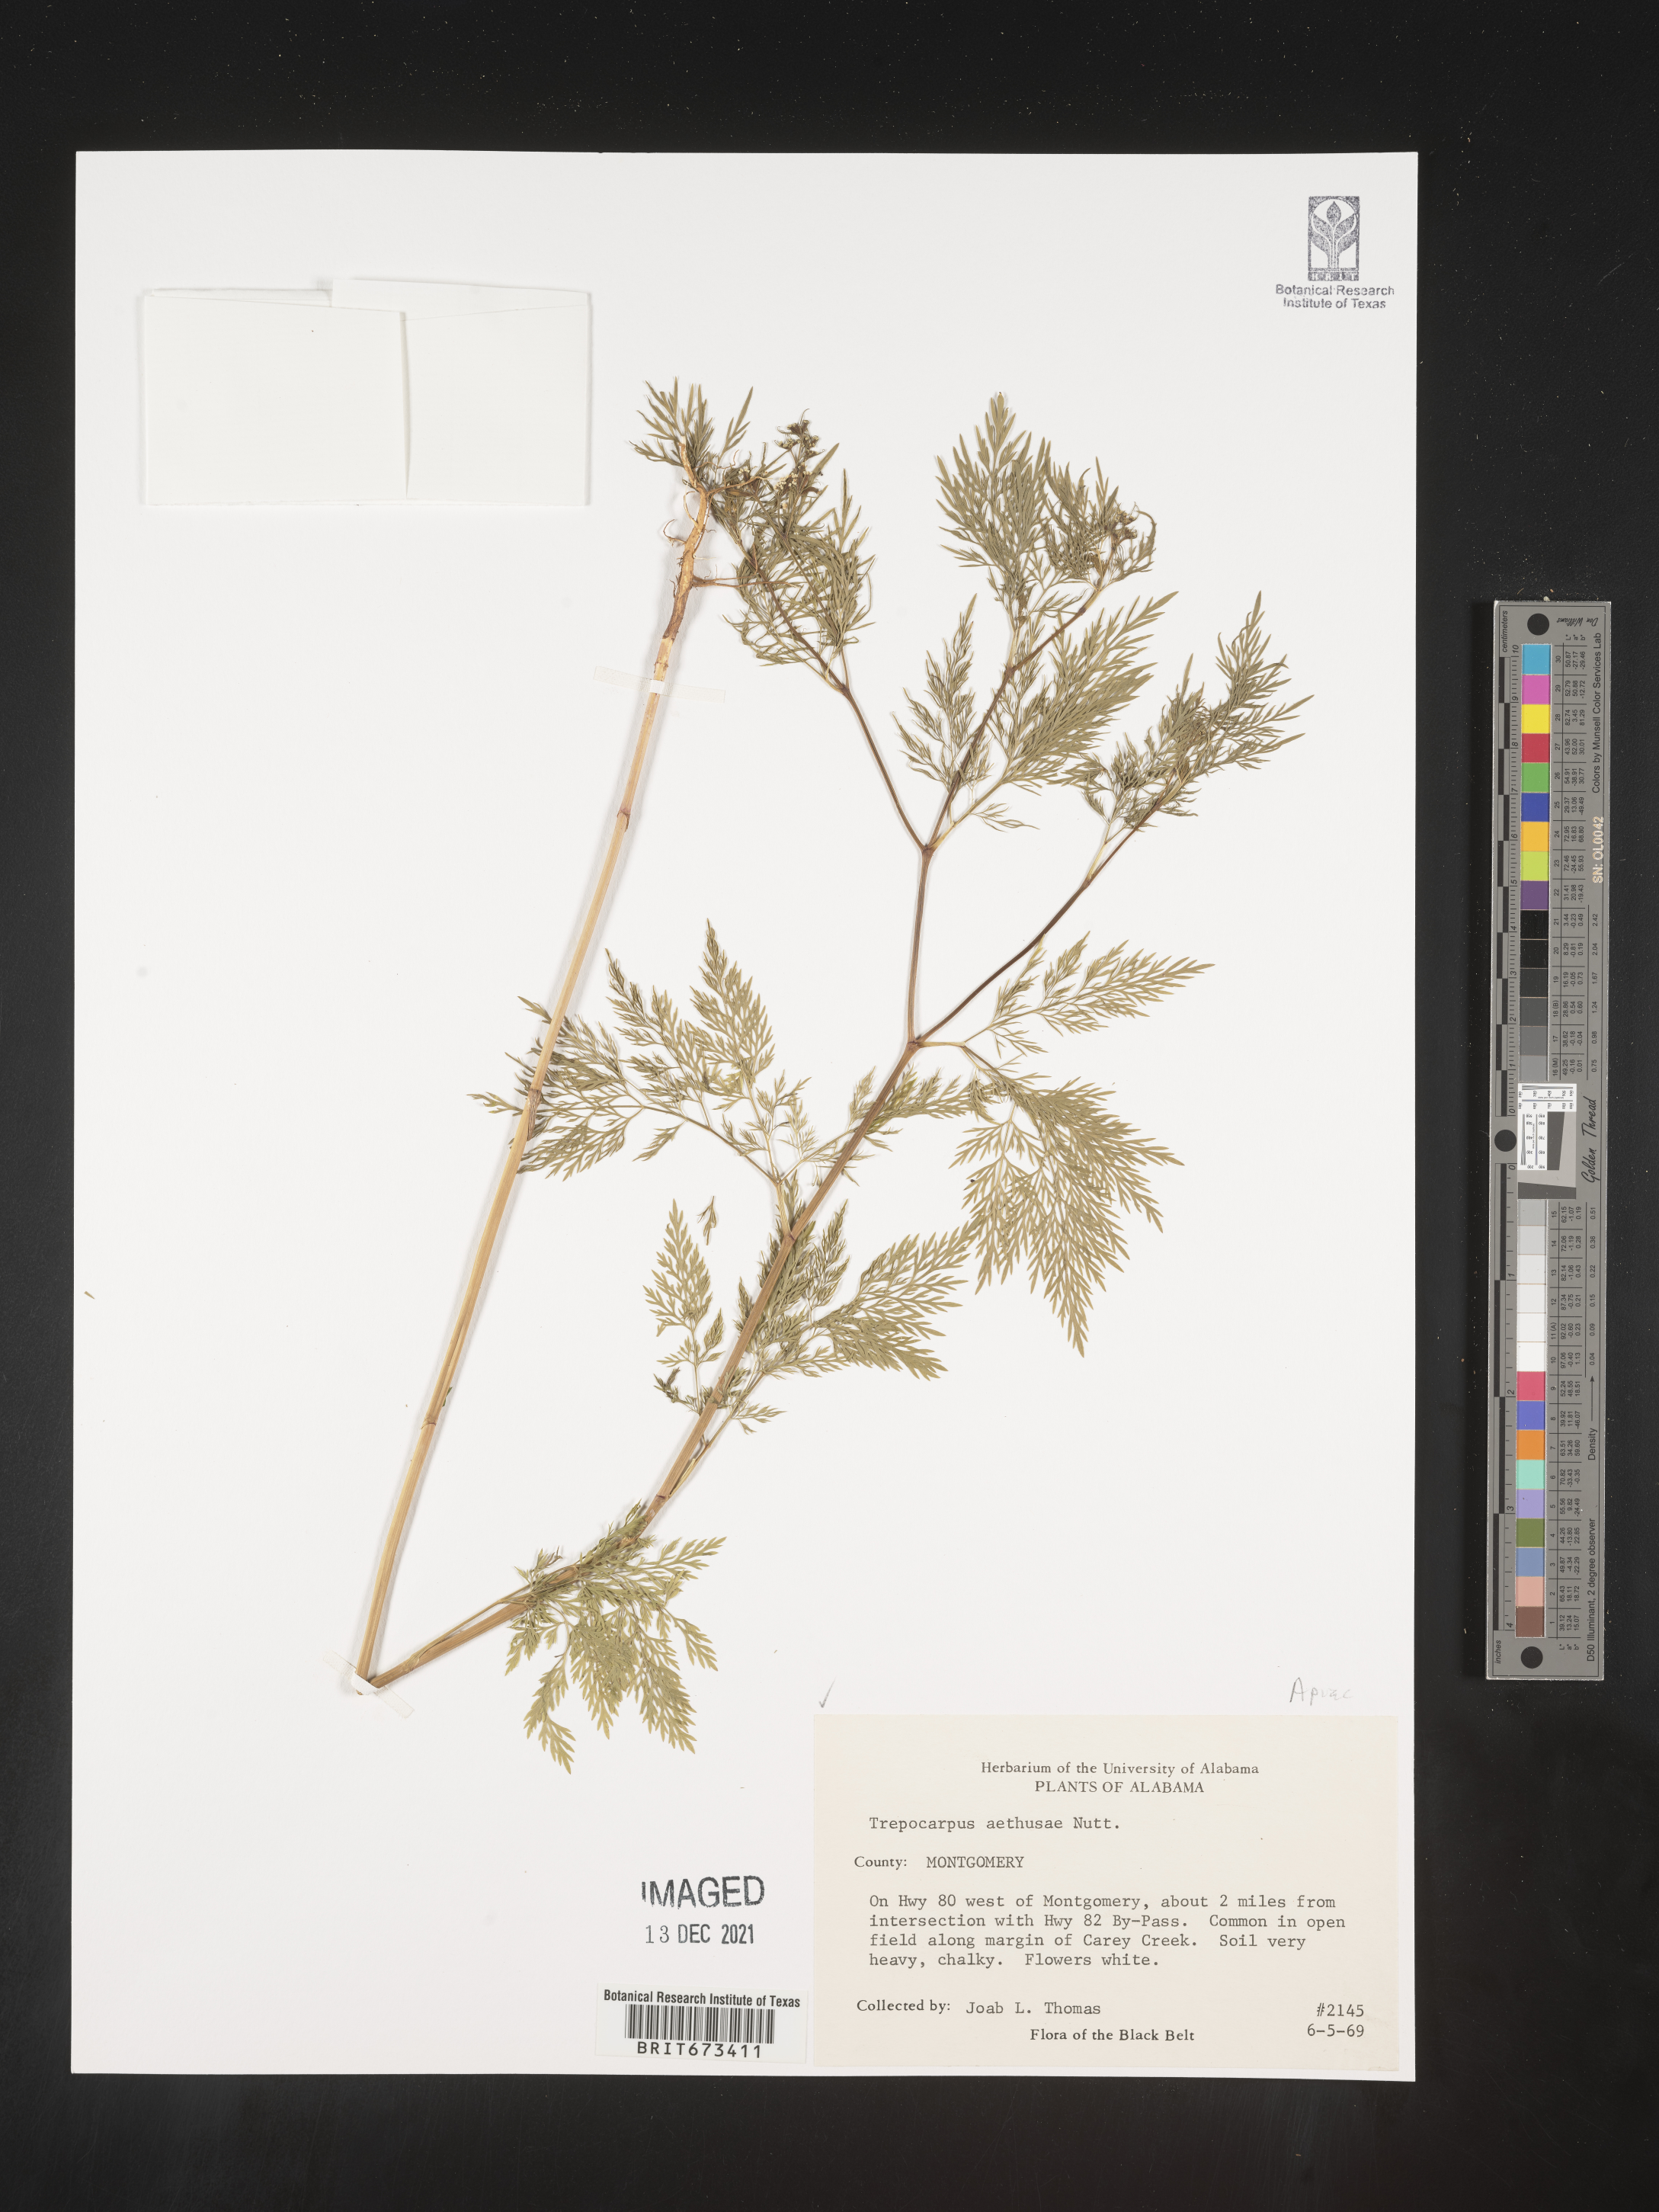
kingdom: Plantae
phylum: Tracheophyta
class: Magnoliopsida
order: Apiales
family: Apiaceae
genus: Trepocarpus
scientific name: Trepocarpus aethusae
